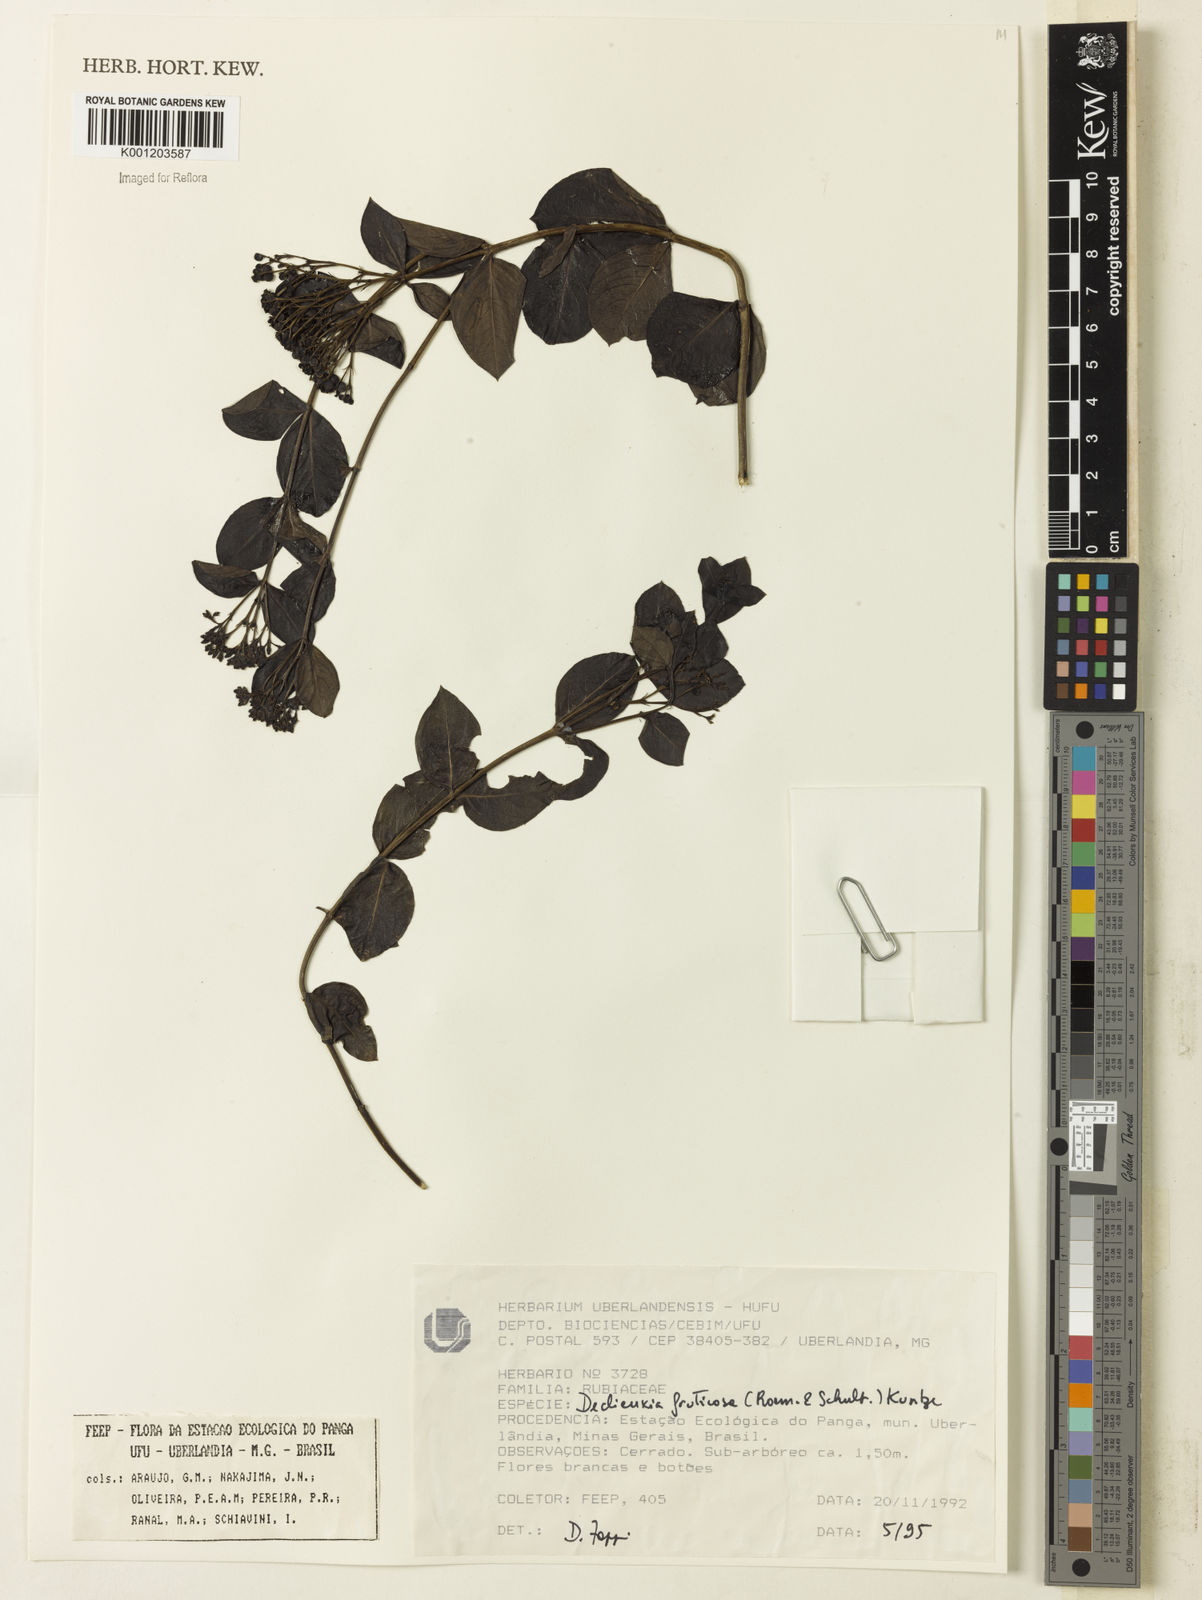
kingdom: Plantae
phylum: Tracheophyta
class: Magnoliopsida
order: Gentianales
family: Rubiaceae
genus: Declieuxia
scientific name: Declieuxia fruticosa
